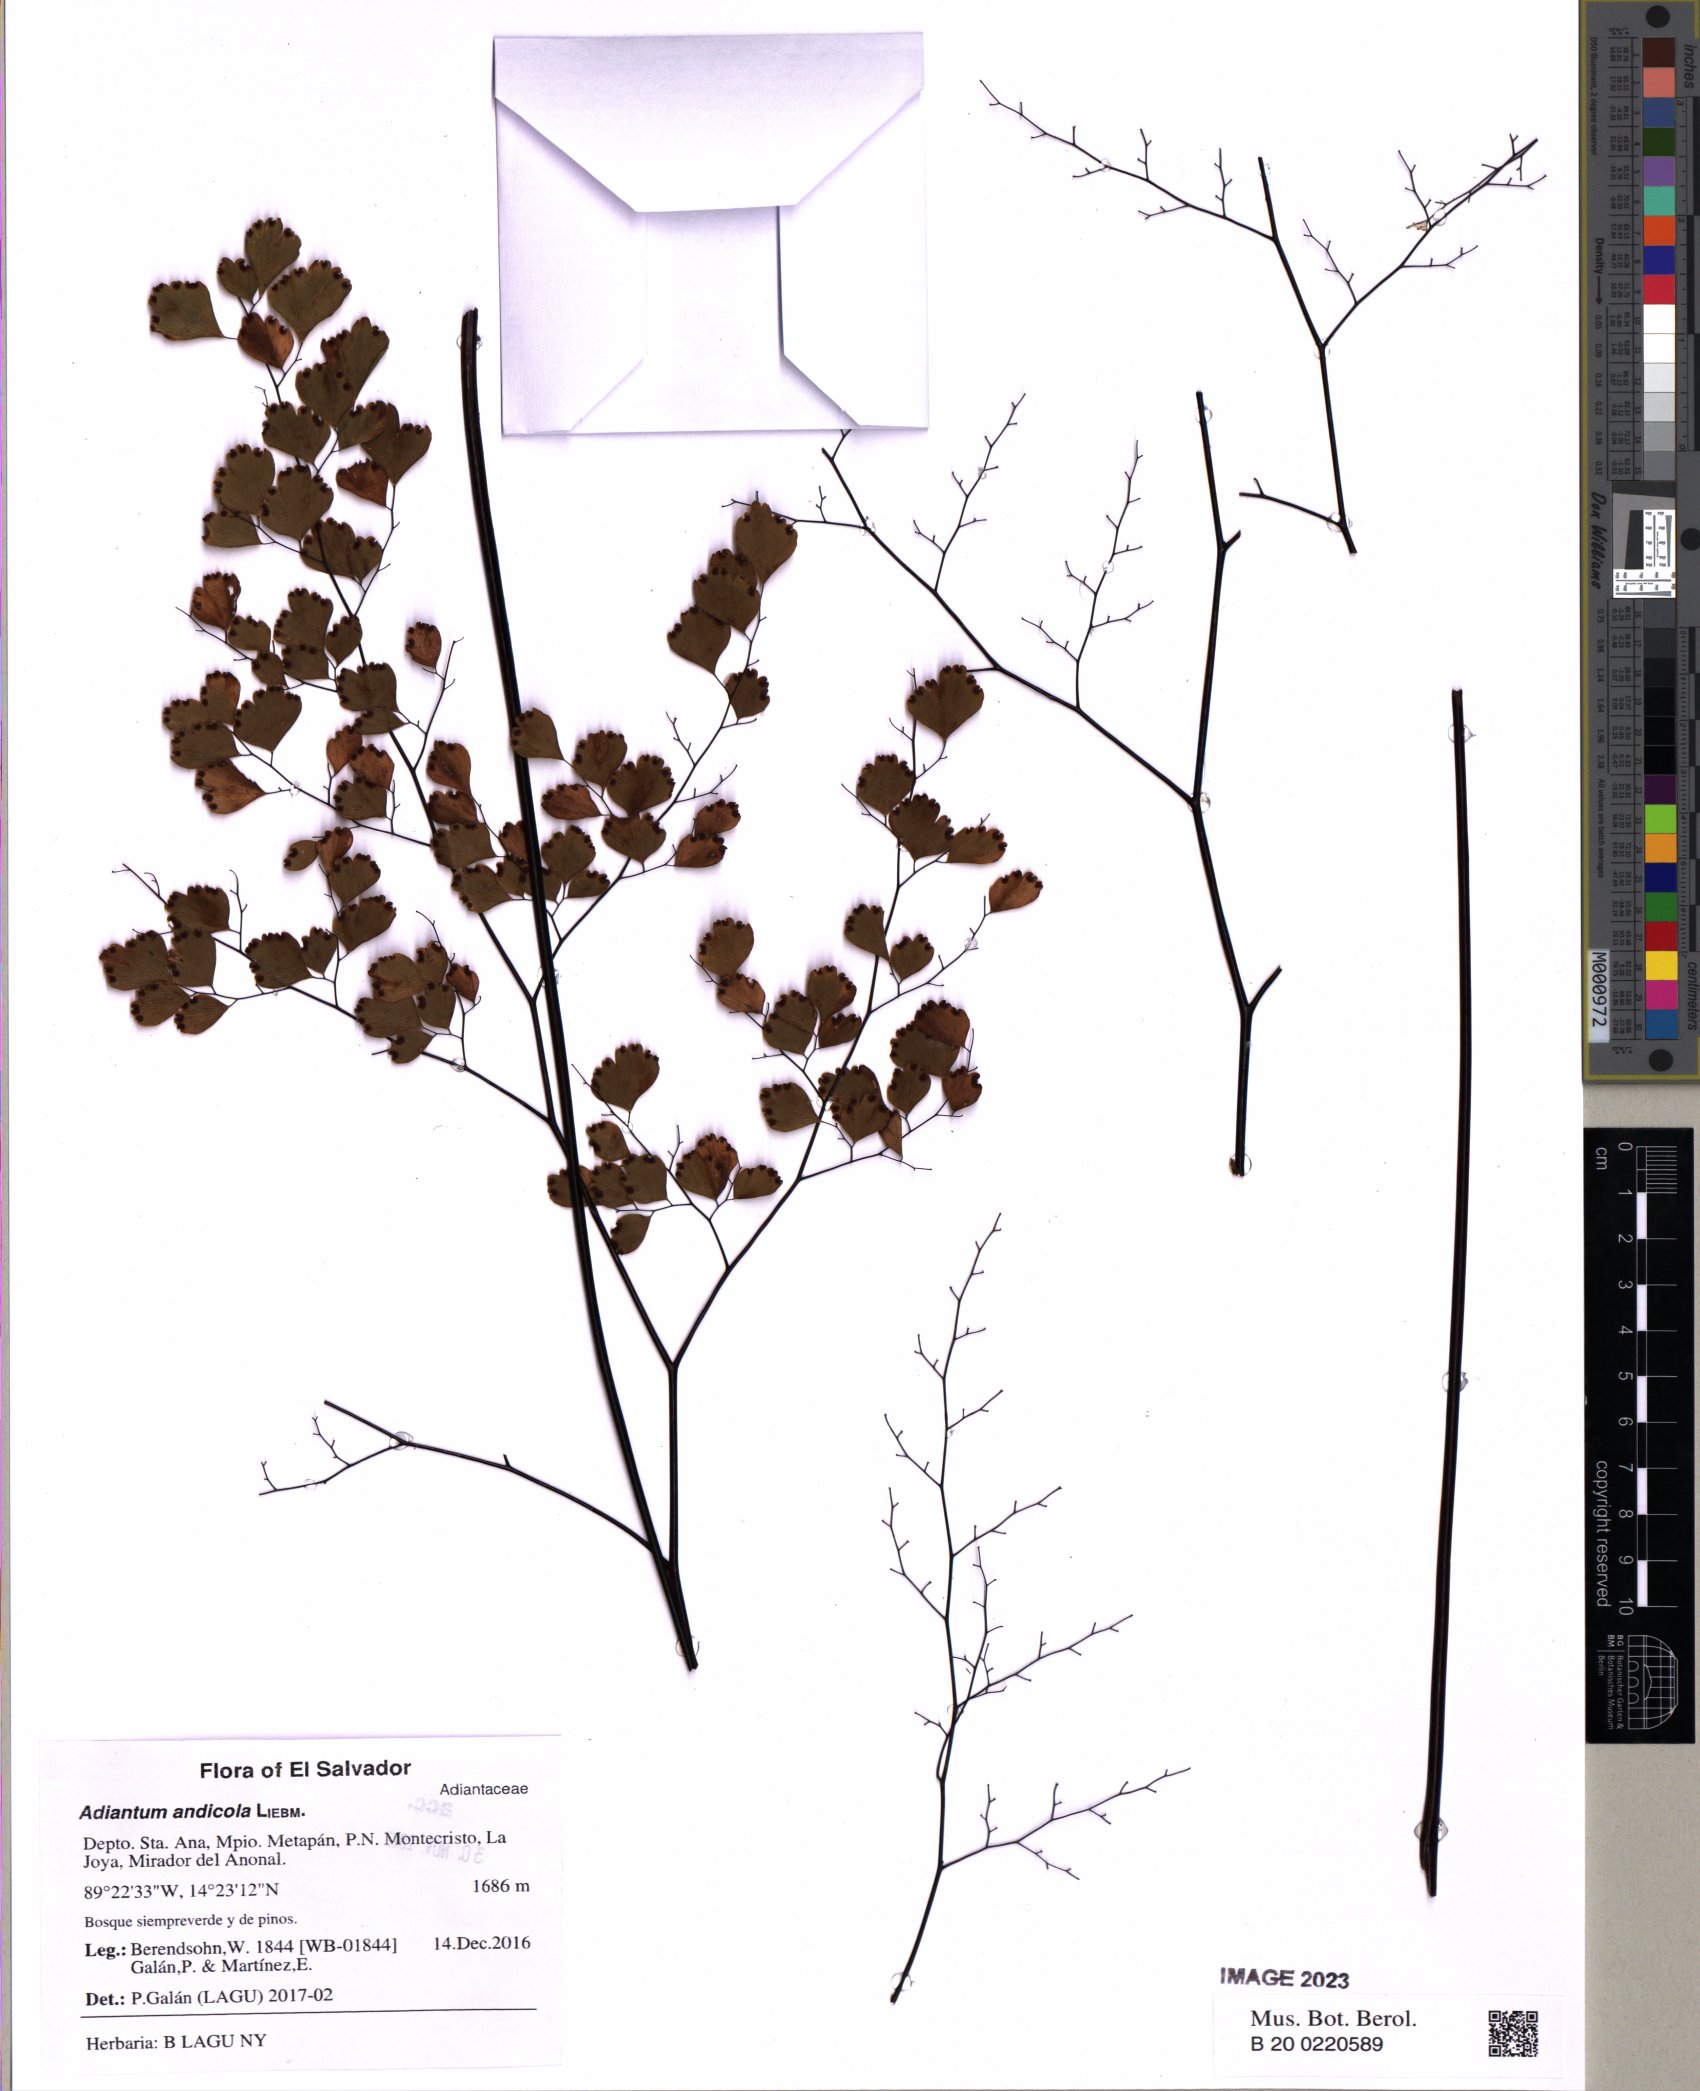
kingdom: Plantae
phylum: Tracheophyta
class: Polypodiopsida
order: Polypodiales
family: Pteridaceae
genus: Adiantum
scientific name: Adiantum andicola
